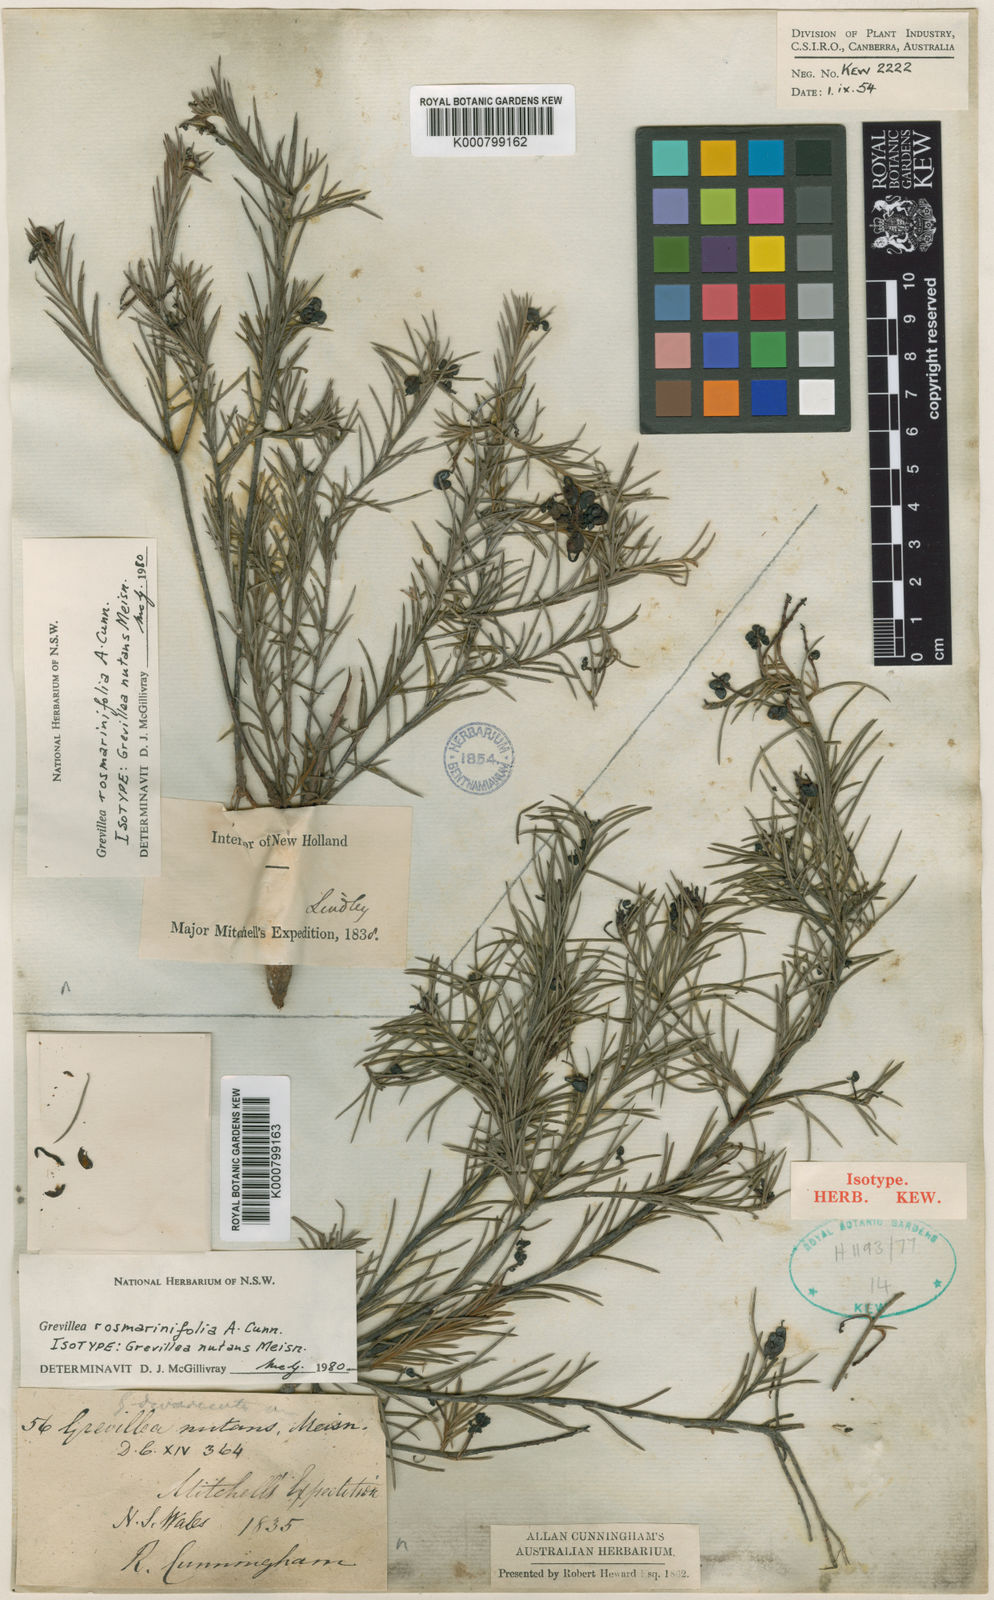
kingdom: Plantae
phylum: Tracheophyta
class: Magnoliopsida
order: Proteales
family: Proteaceae
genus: Grevillea
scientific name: Grevillea rosmarinifolia
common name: Rosemary grevillea
